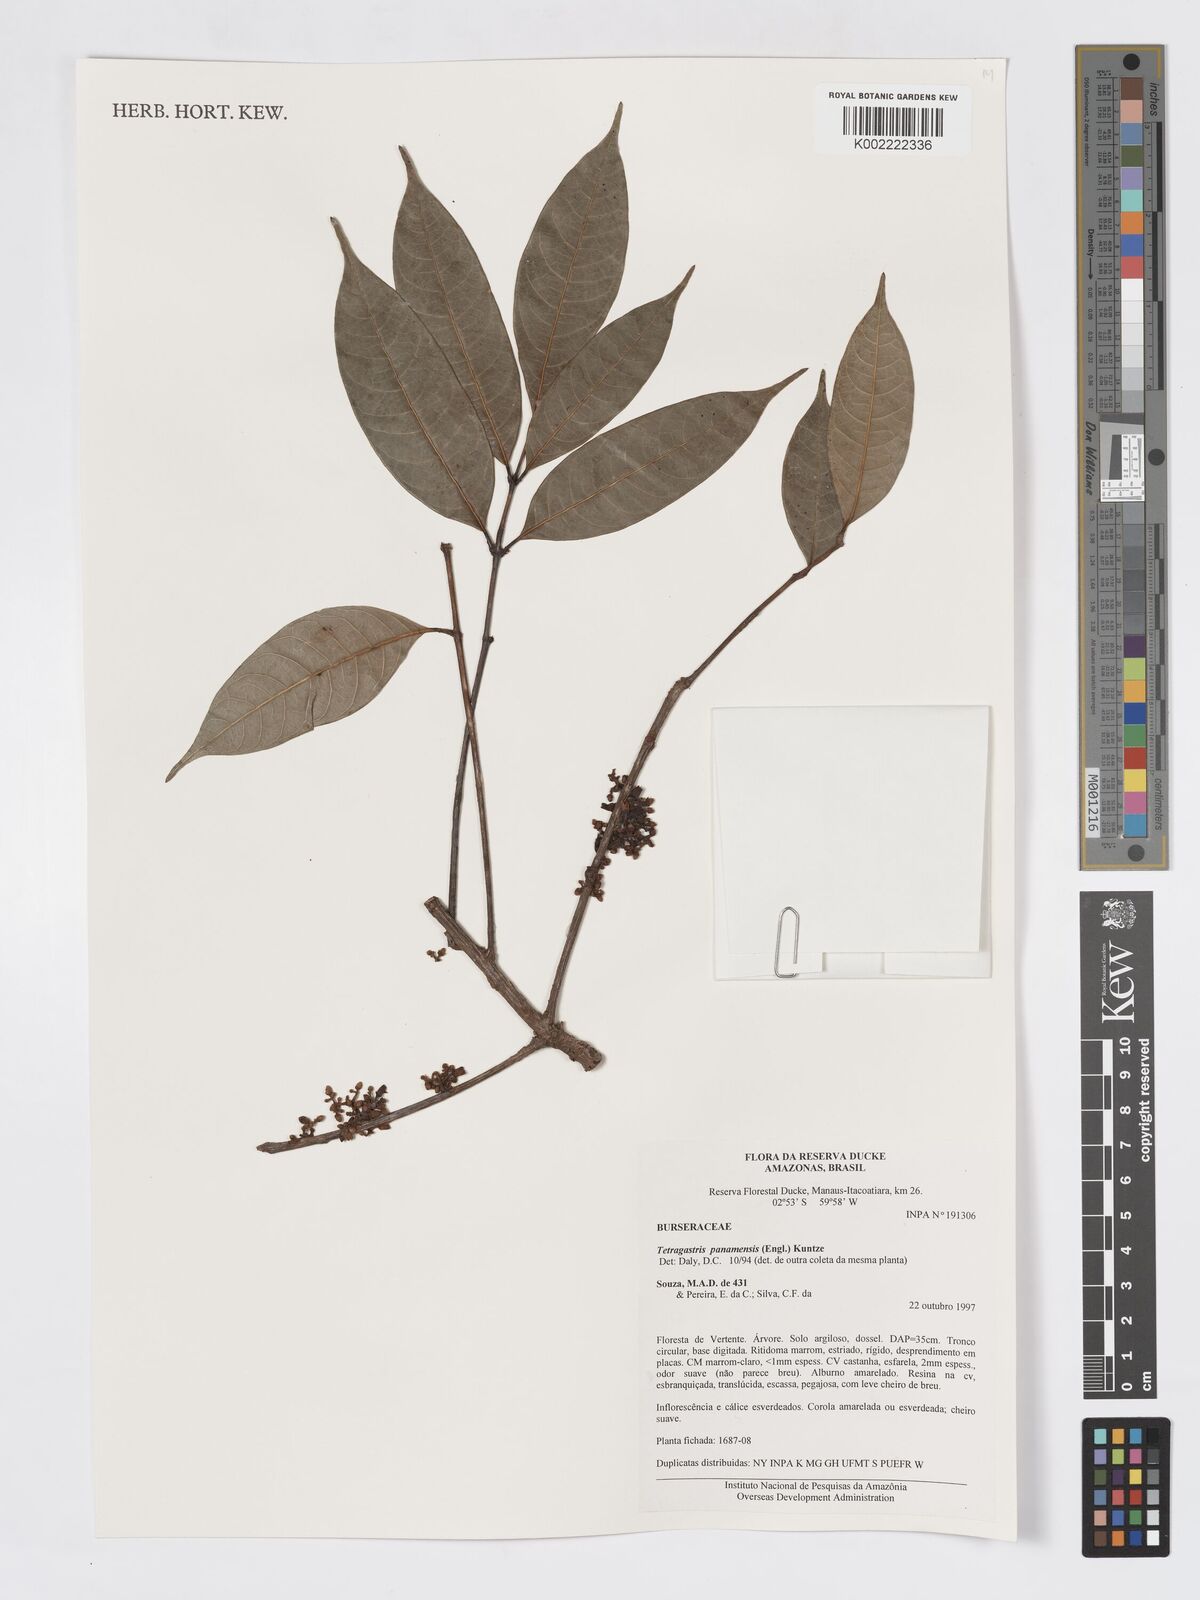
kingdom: Plantae
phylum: Tracheophyta
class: Magnoliopsida
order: Sapindales
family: Burseraceae
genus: Tetragastris
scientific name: Tetragastris panamensis
